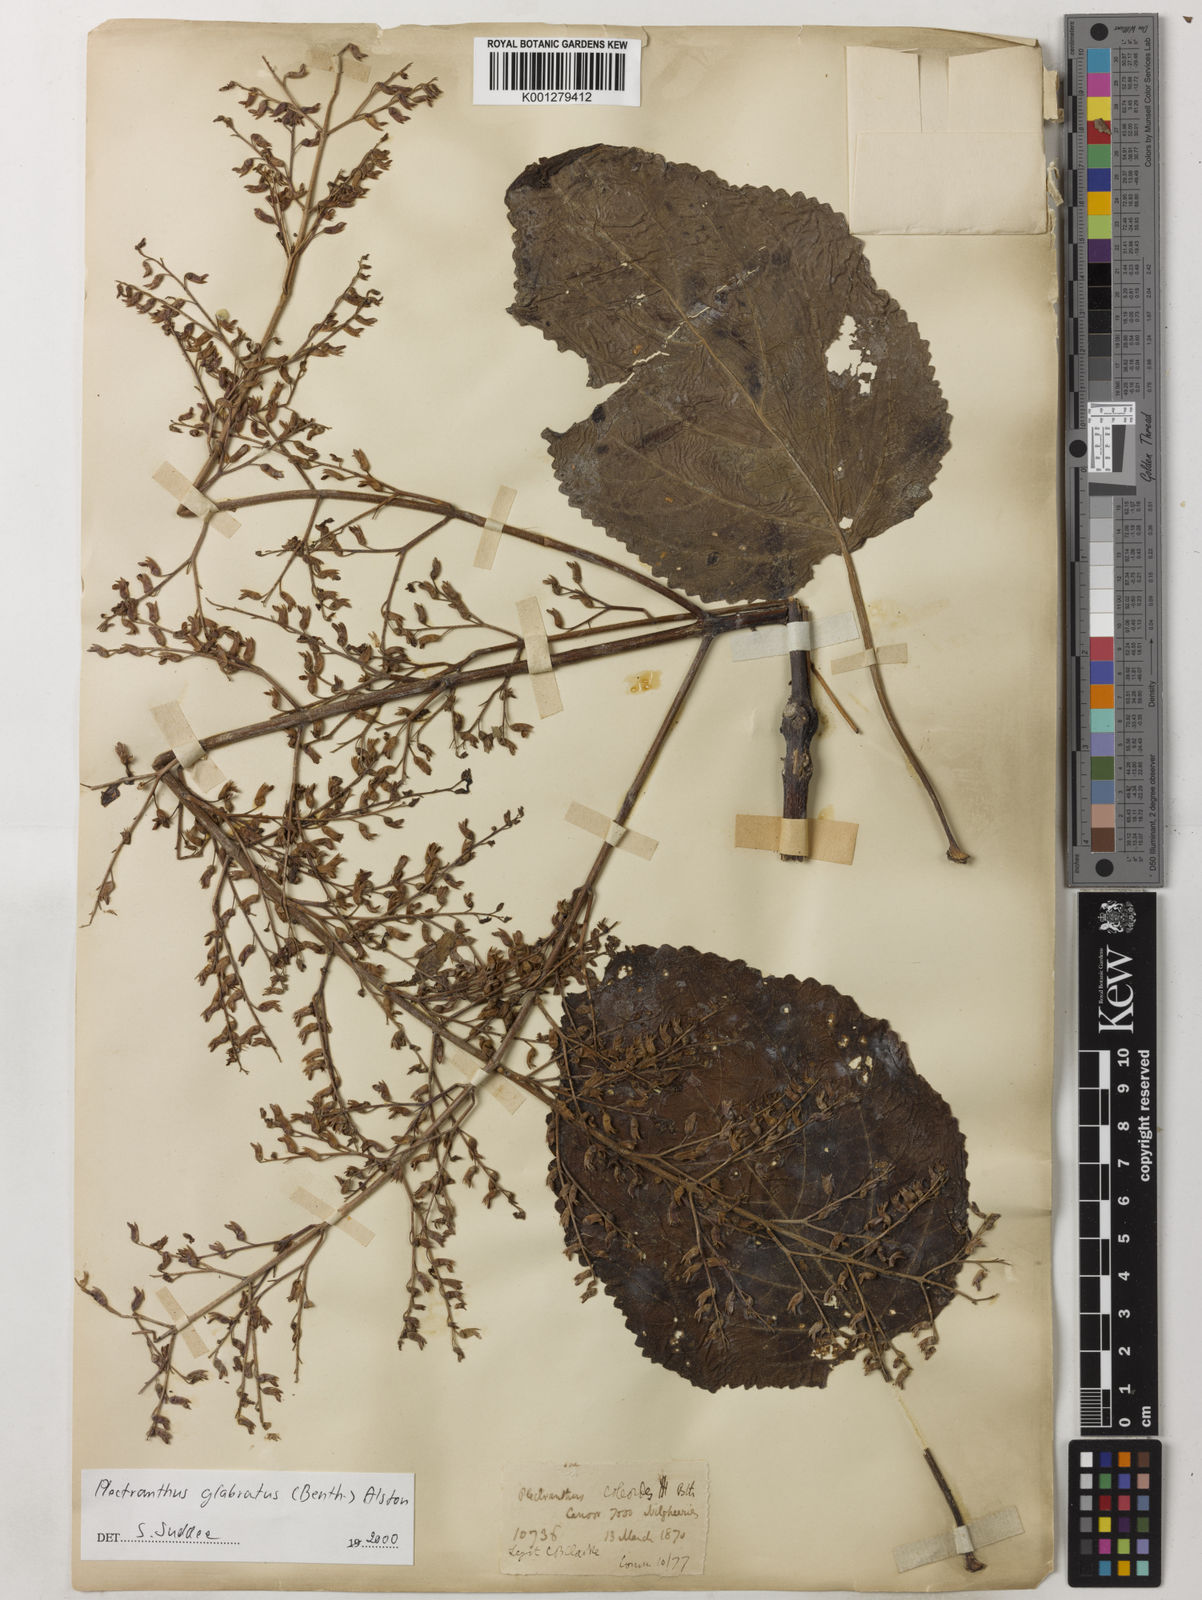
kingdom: Plantae
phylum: Tracheophyta
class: Magnoliopsida
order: Lamiales
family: Lamiaceae
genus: Coleus
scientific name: Coleus paniculatus
